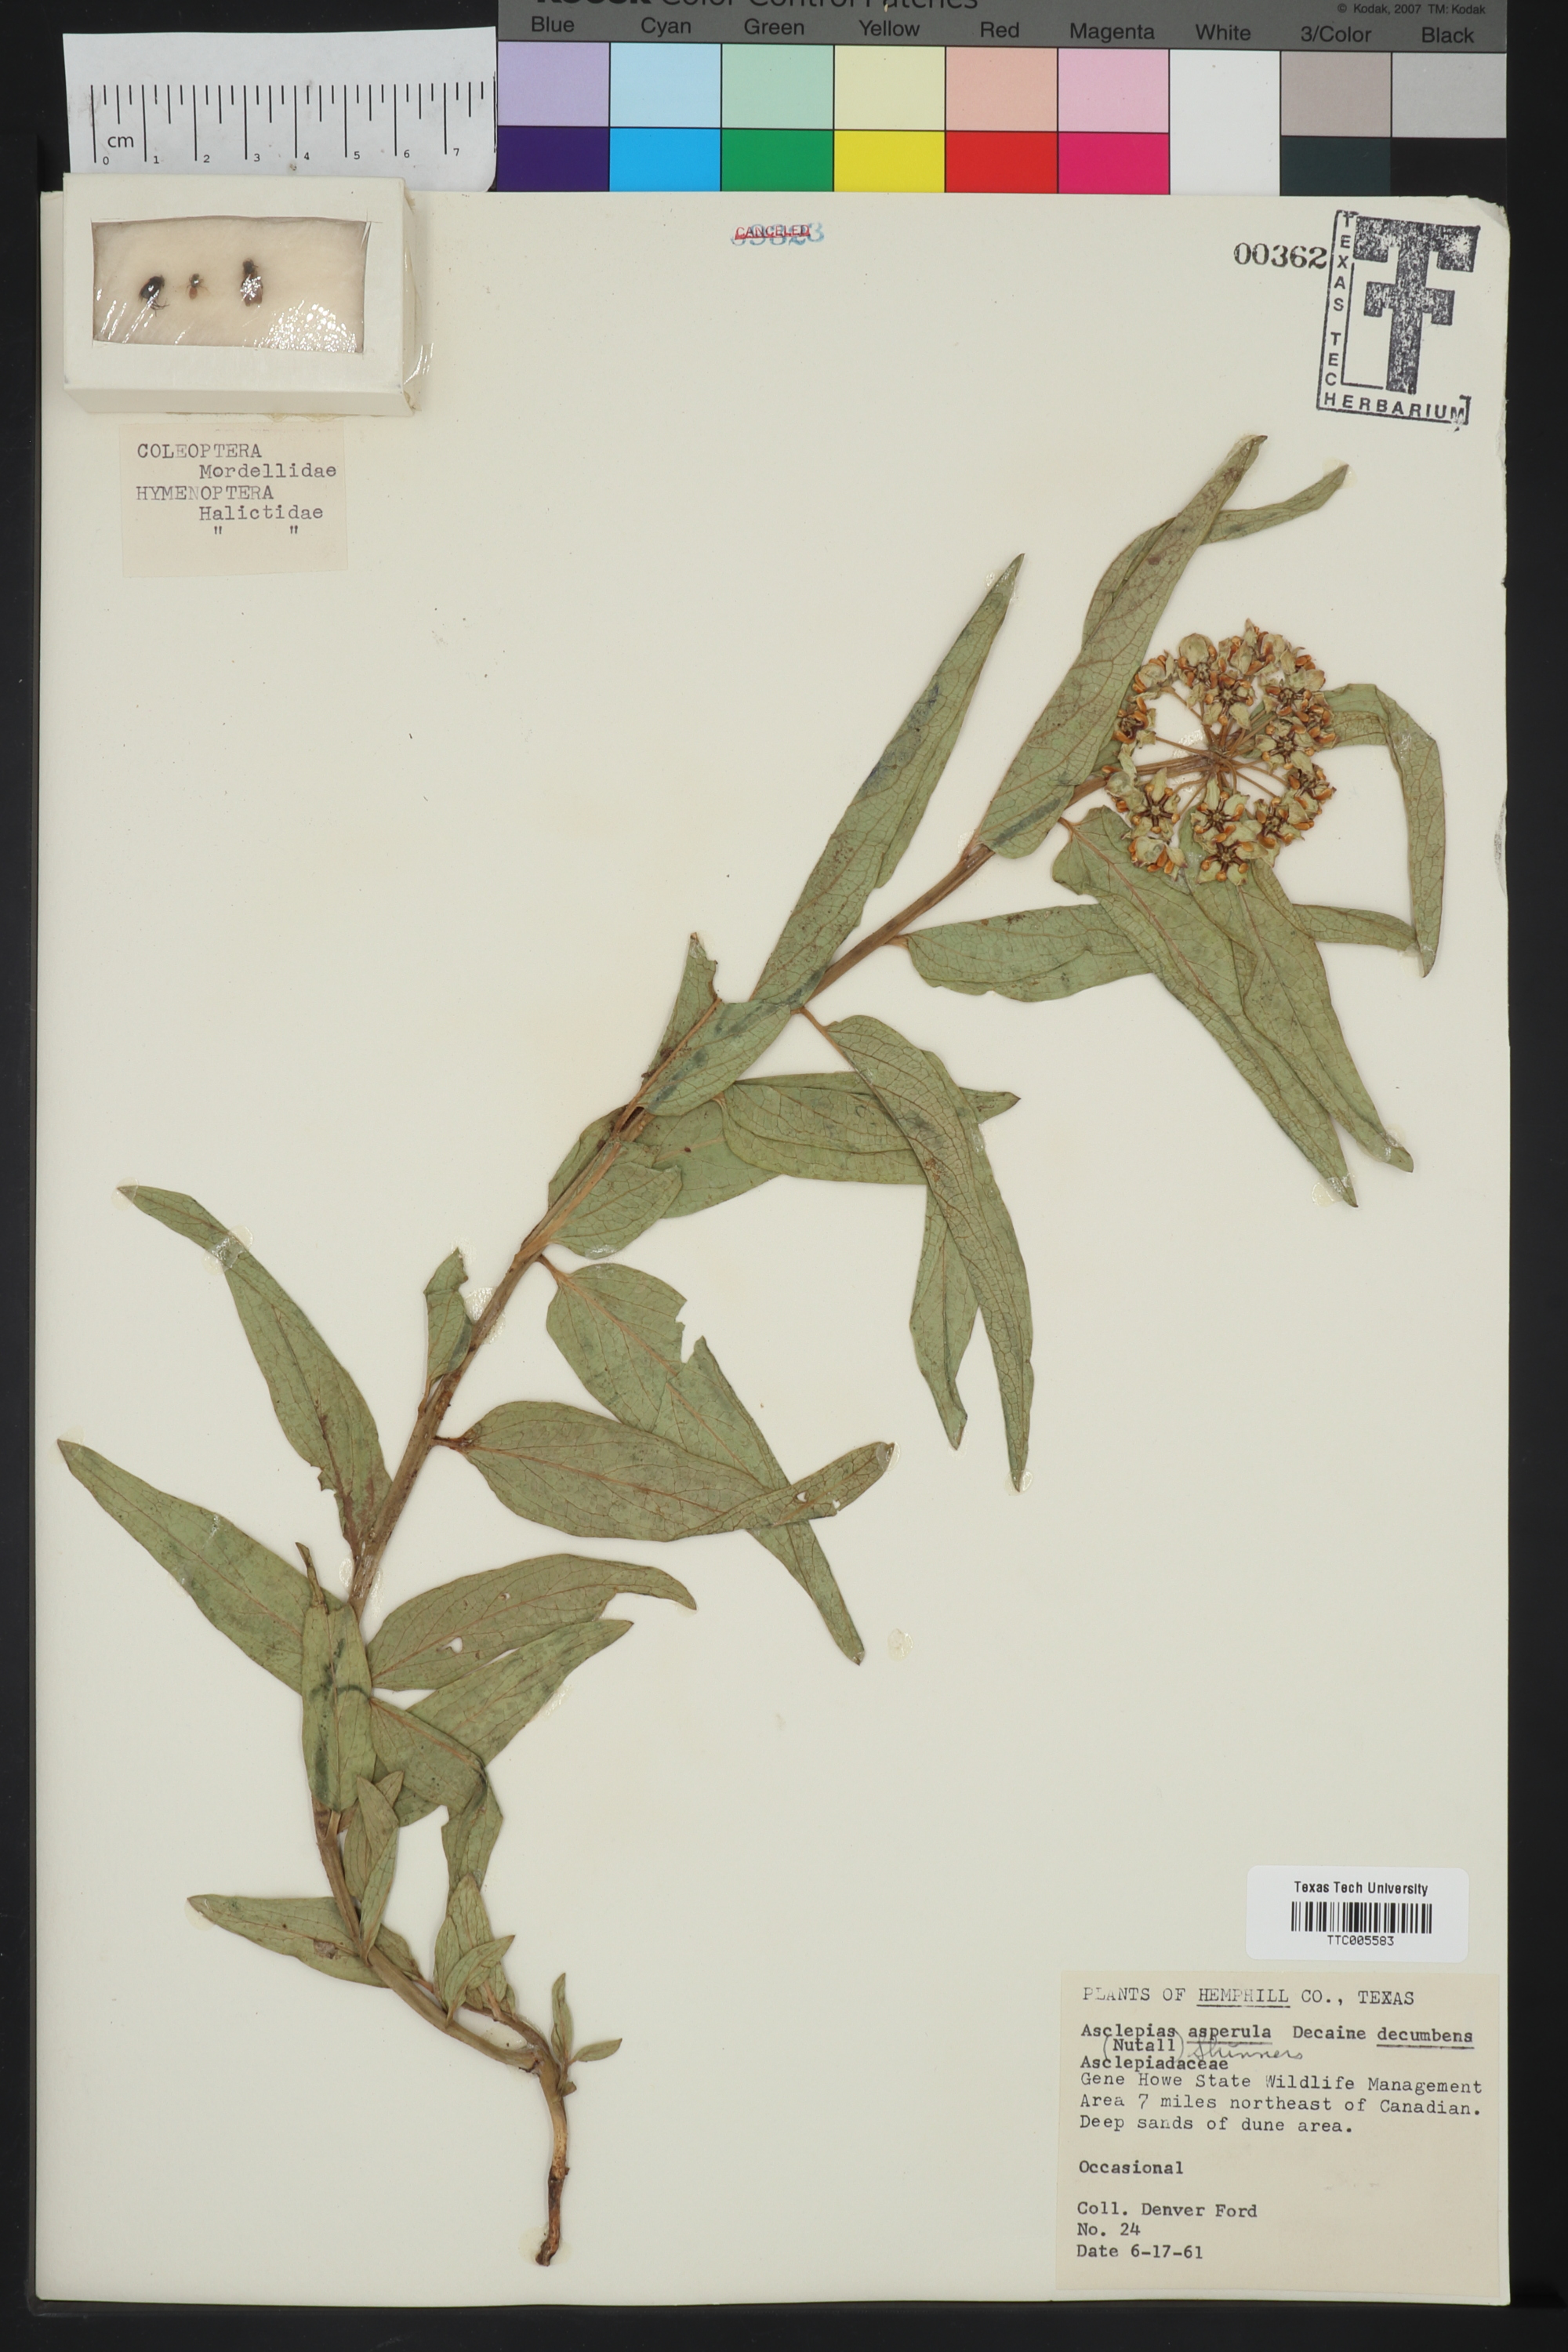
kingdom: Plantae
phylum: Tracheophyta
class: Magnoliopsida
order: Gentianales
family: Apocynaceae
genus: Asclepias
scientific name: Asclepias asperula
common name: Antelope horns
